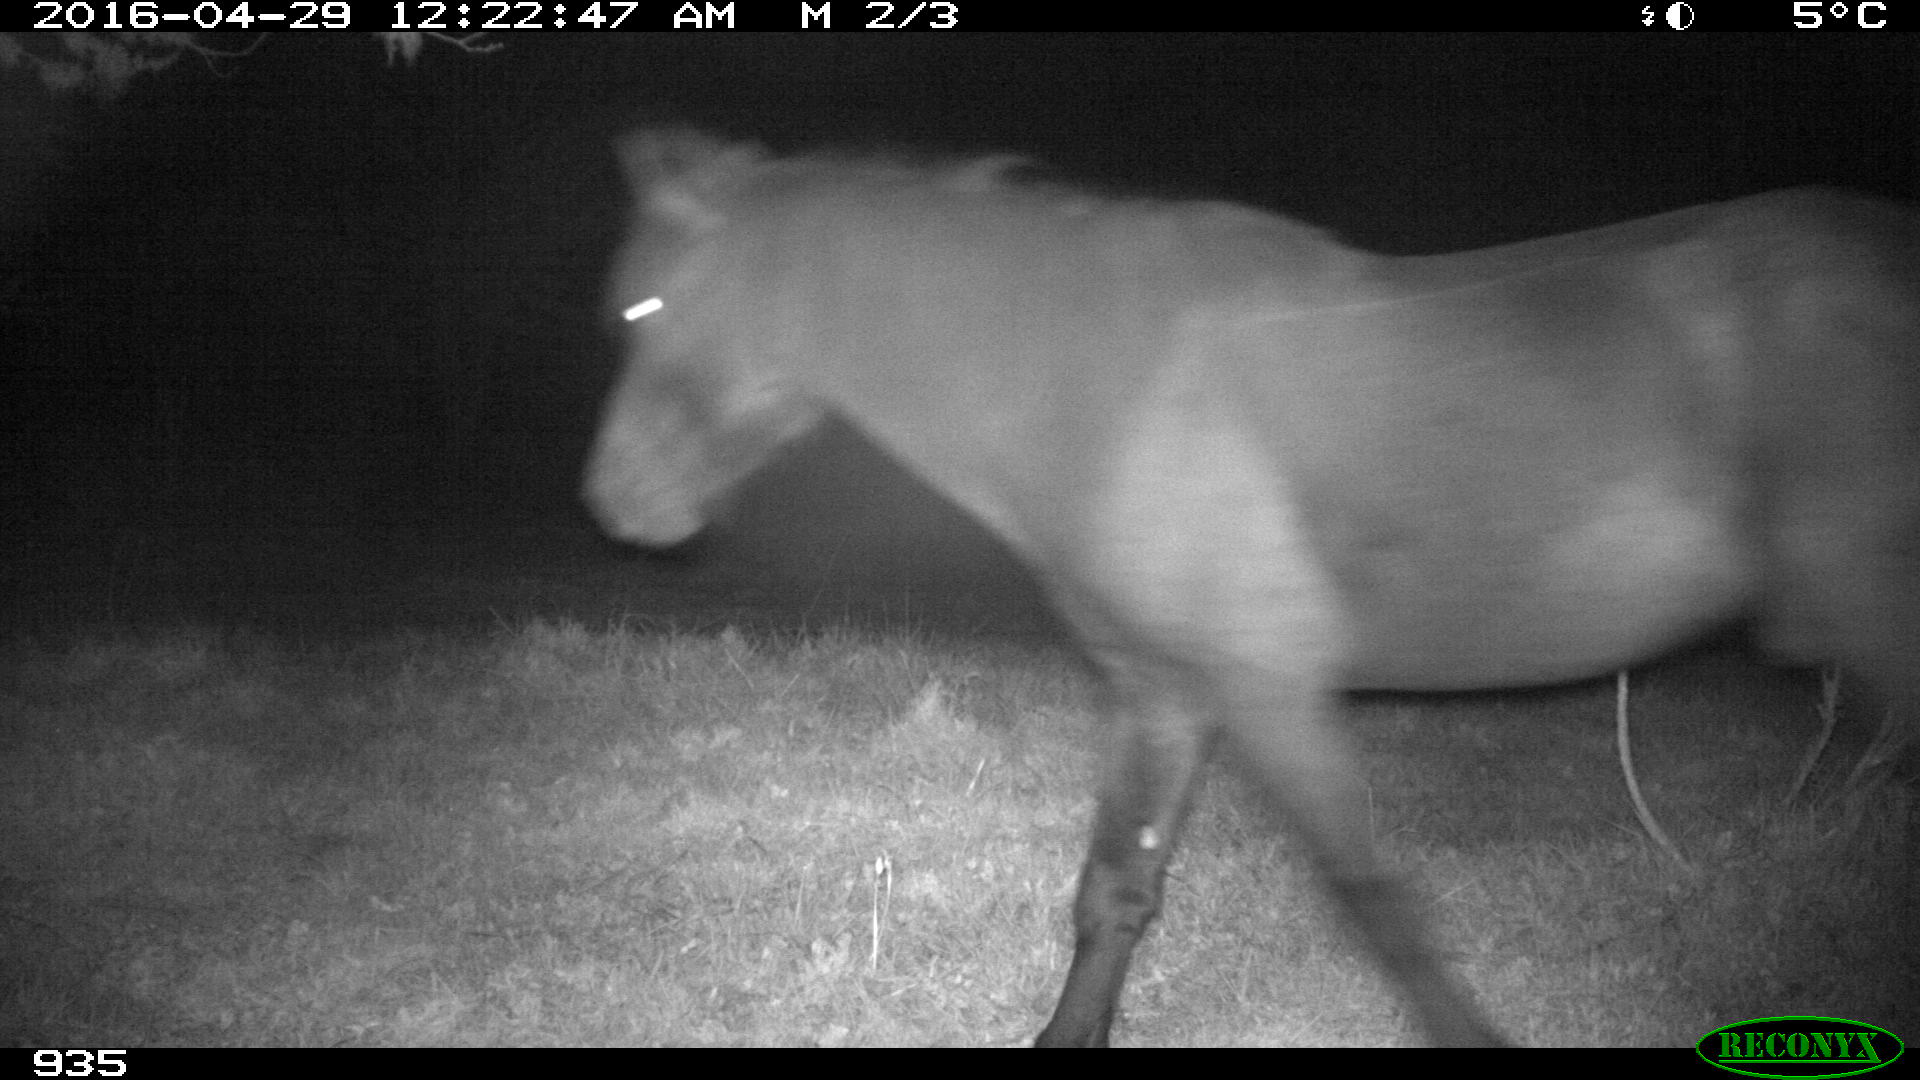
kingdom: Animalia
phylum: Chordata
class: Mammalia
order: Perissodactyla
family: Equidae
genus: Equus
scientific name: Equus caballus
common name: Horse
